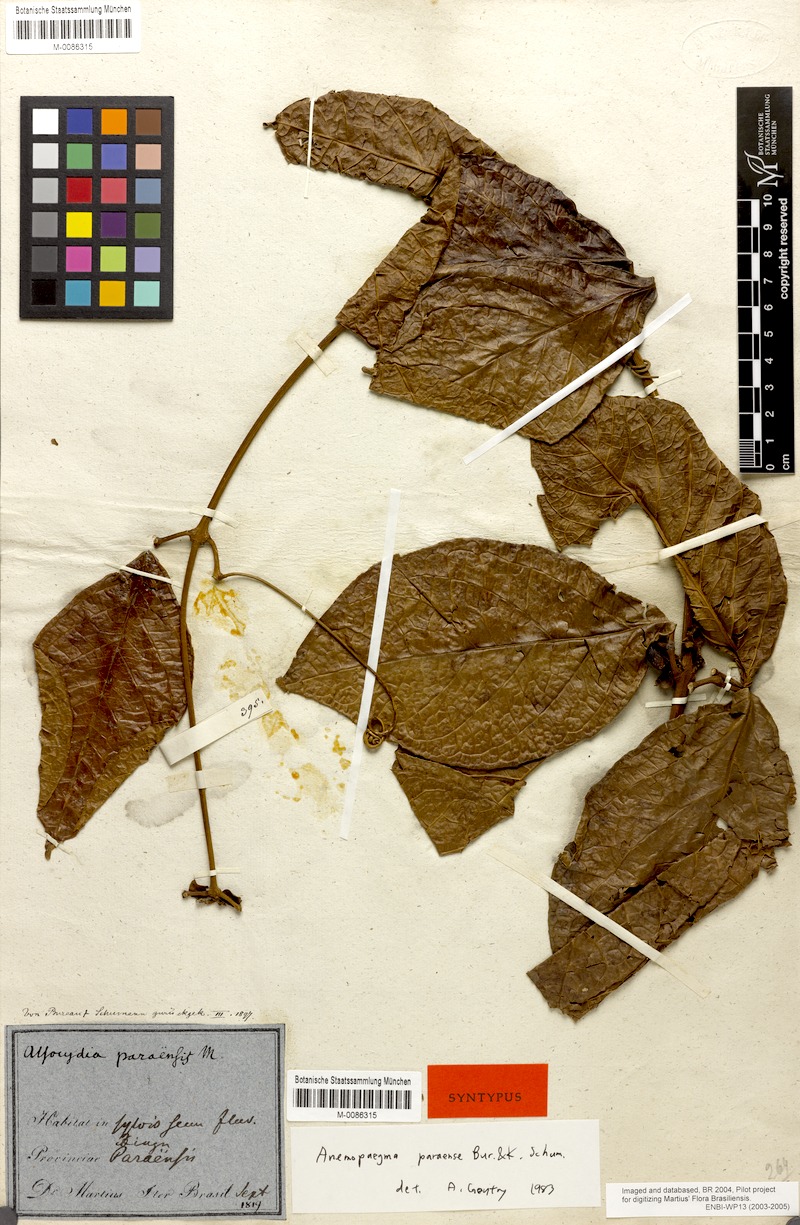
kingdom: Plantae
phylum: Tracheophyta
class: Magnoliopsida
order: Lamiales
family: Bignoniaceae
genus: Anemopaegma
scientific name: Anemopaegma paraense
